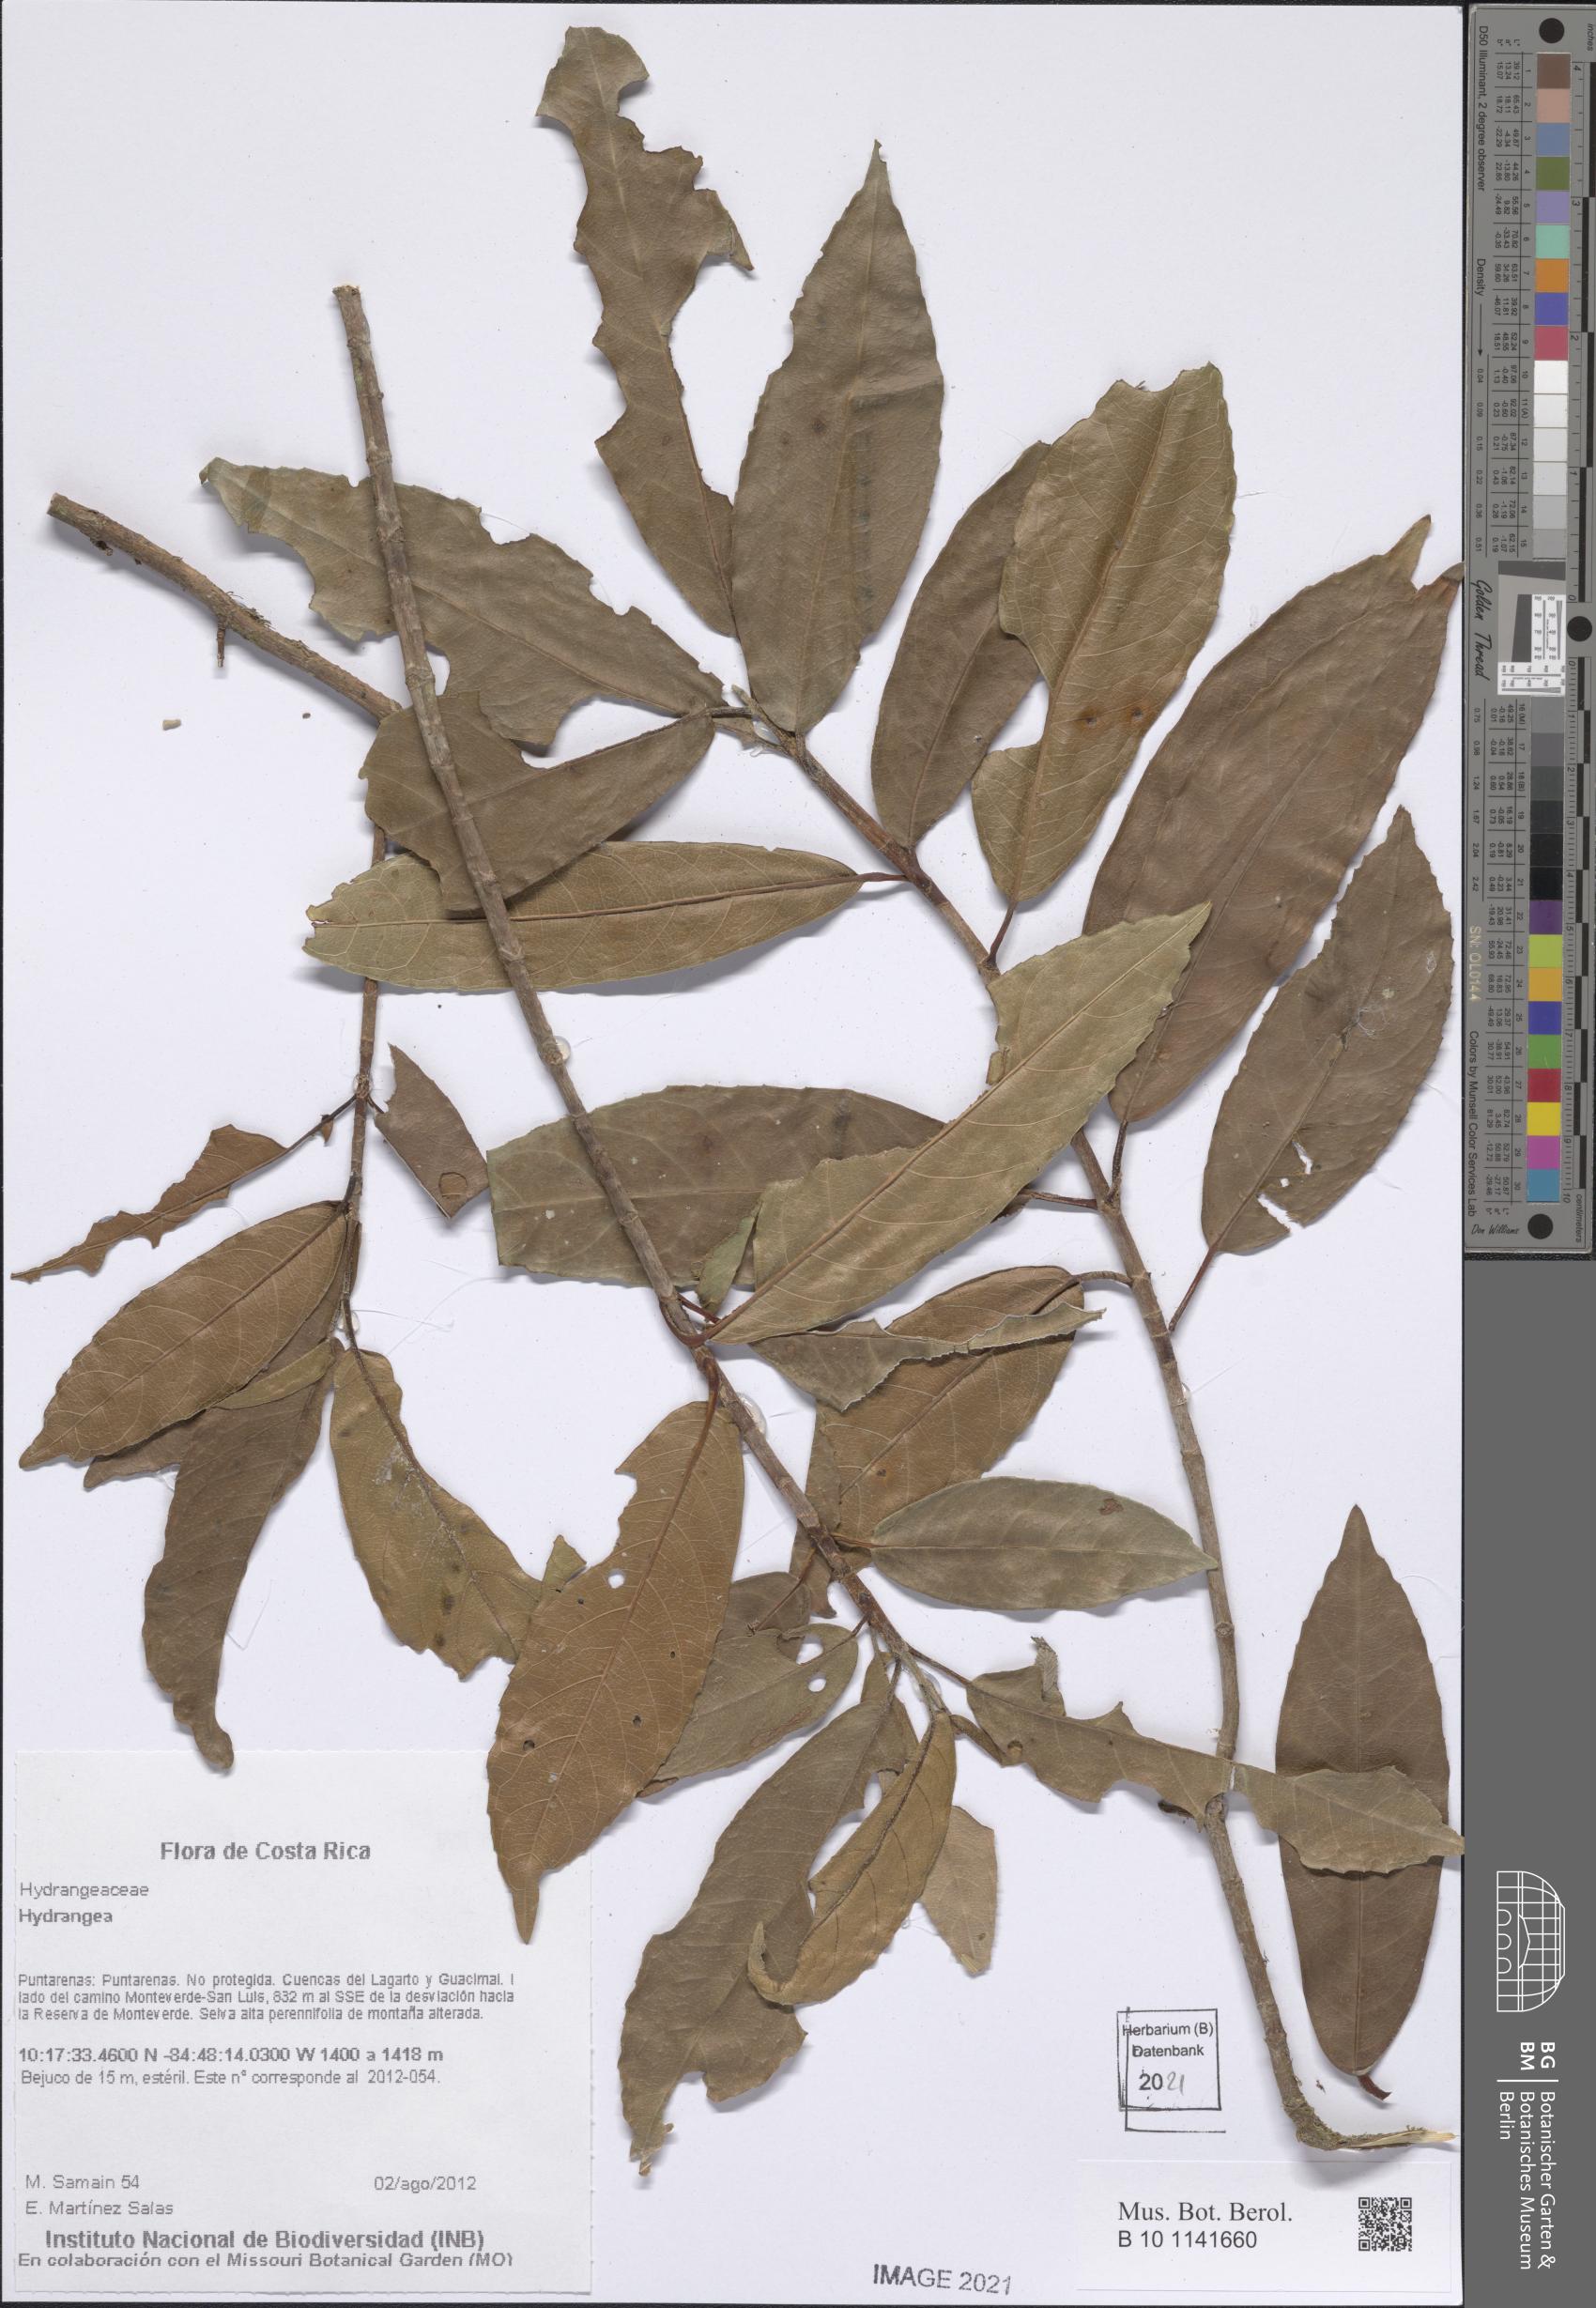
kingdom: Plantae
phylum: Tracheophyta
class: Magnoliopsida
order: Cornales
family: Hydrangeaceae
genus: Hydrangea
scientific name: Hydrangea
